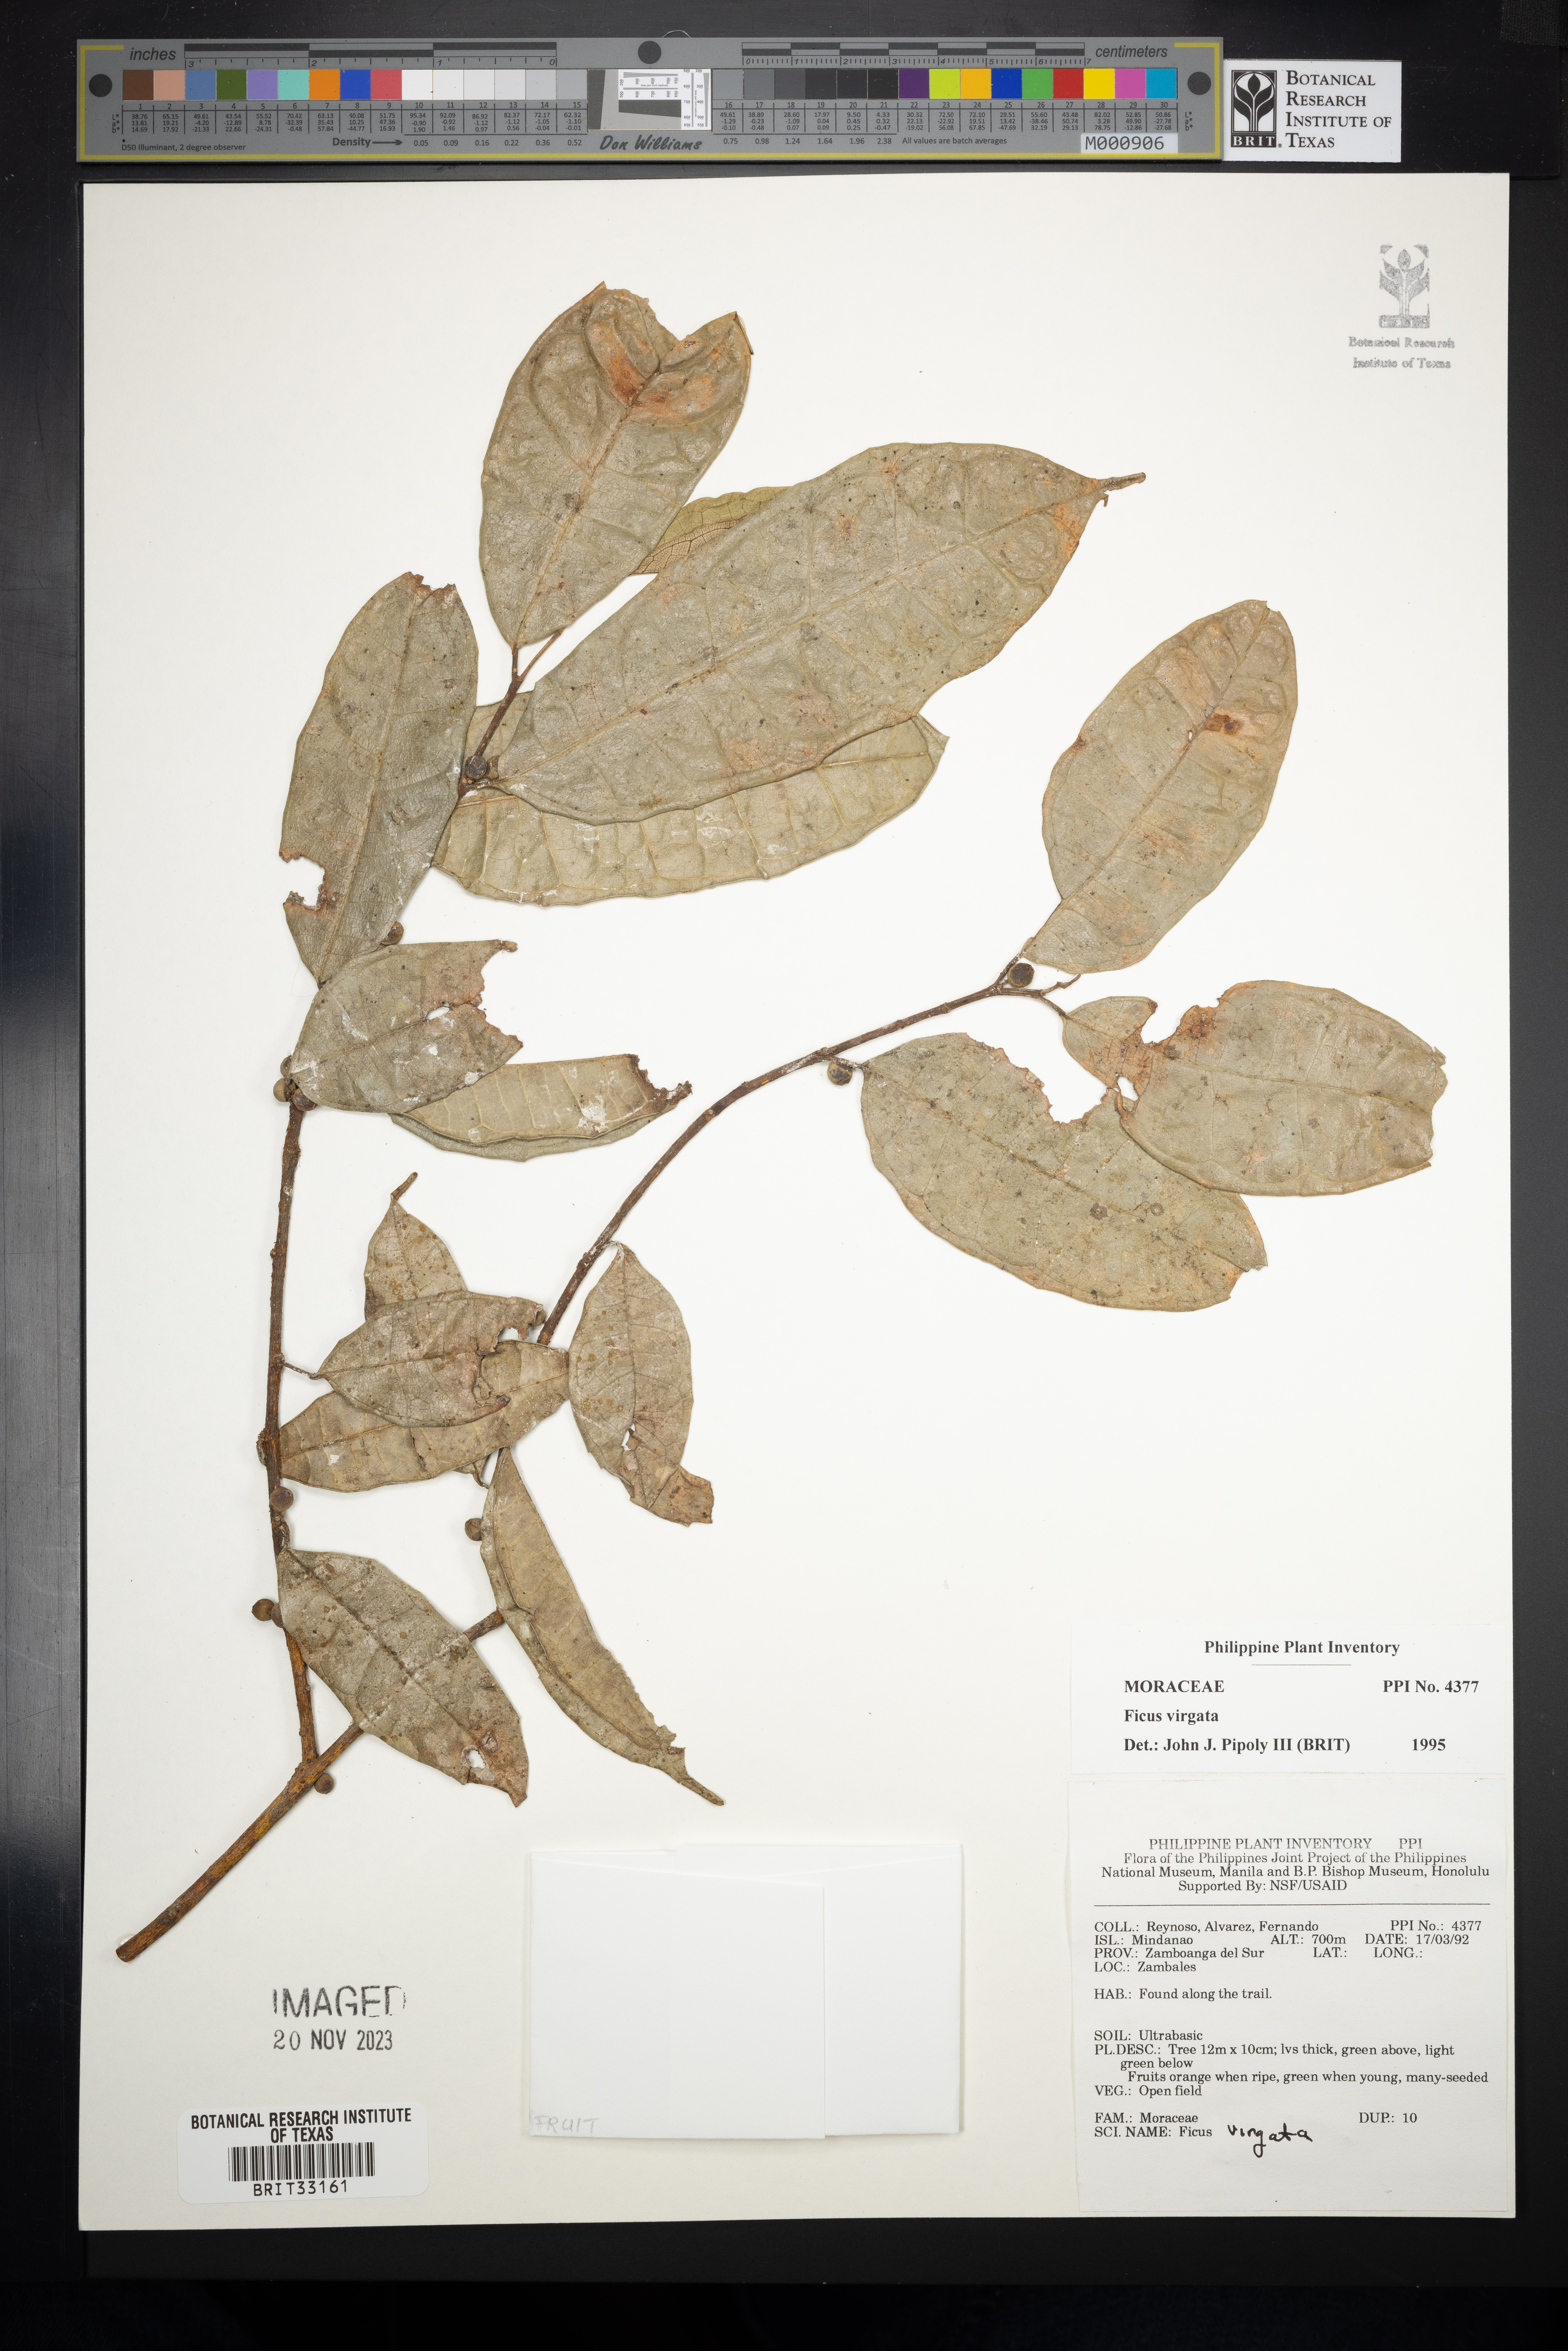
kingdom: Plantae
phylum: Tracheophyta
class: Magnoliopsida
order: Rosales
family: Moraceae
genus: Ficus
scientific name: Ficus virgata
